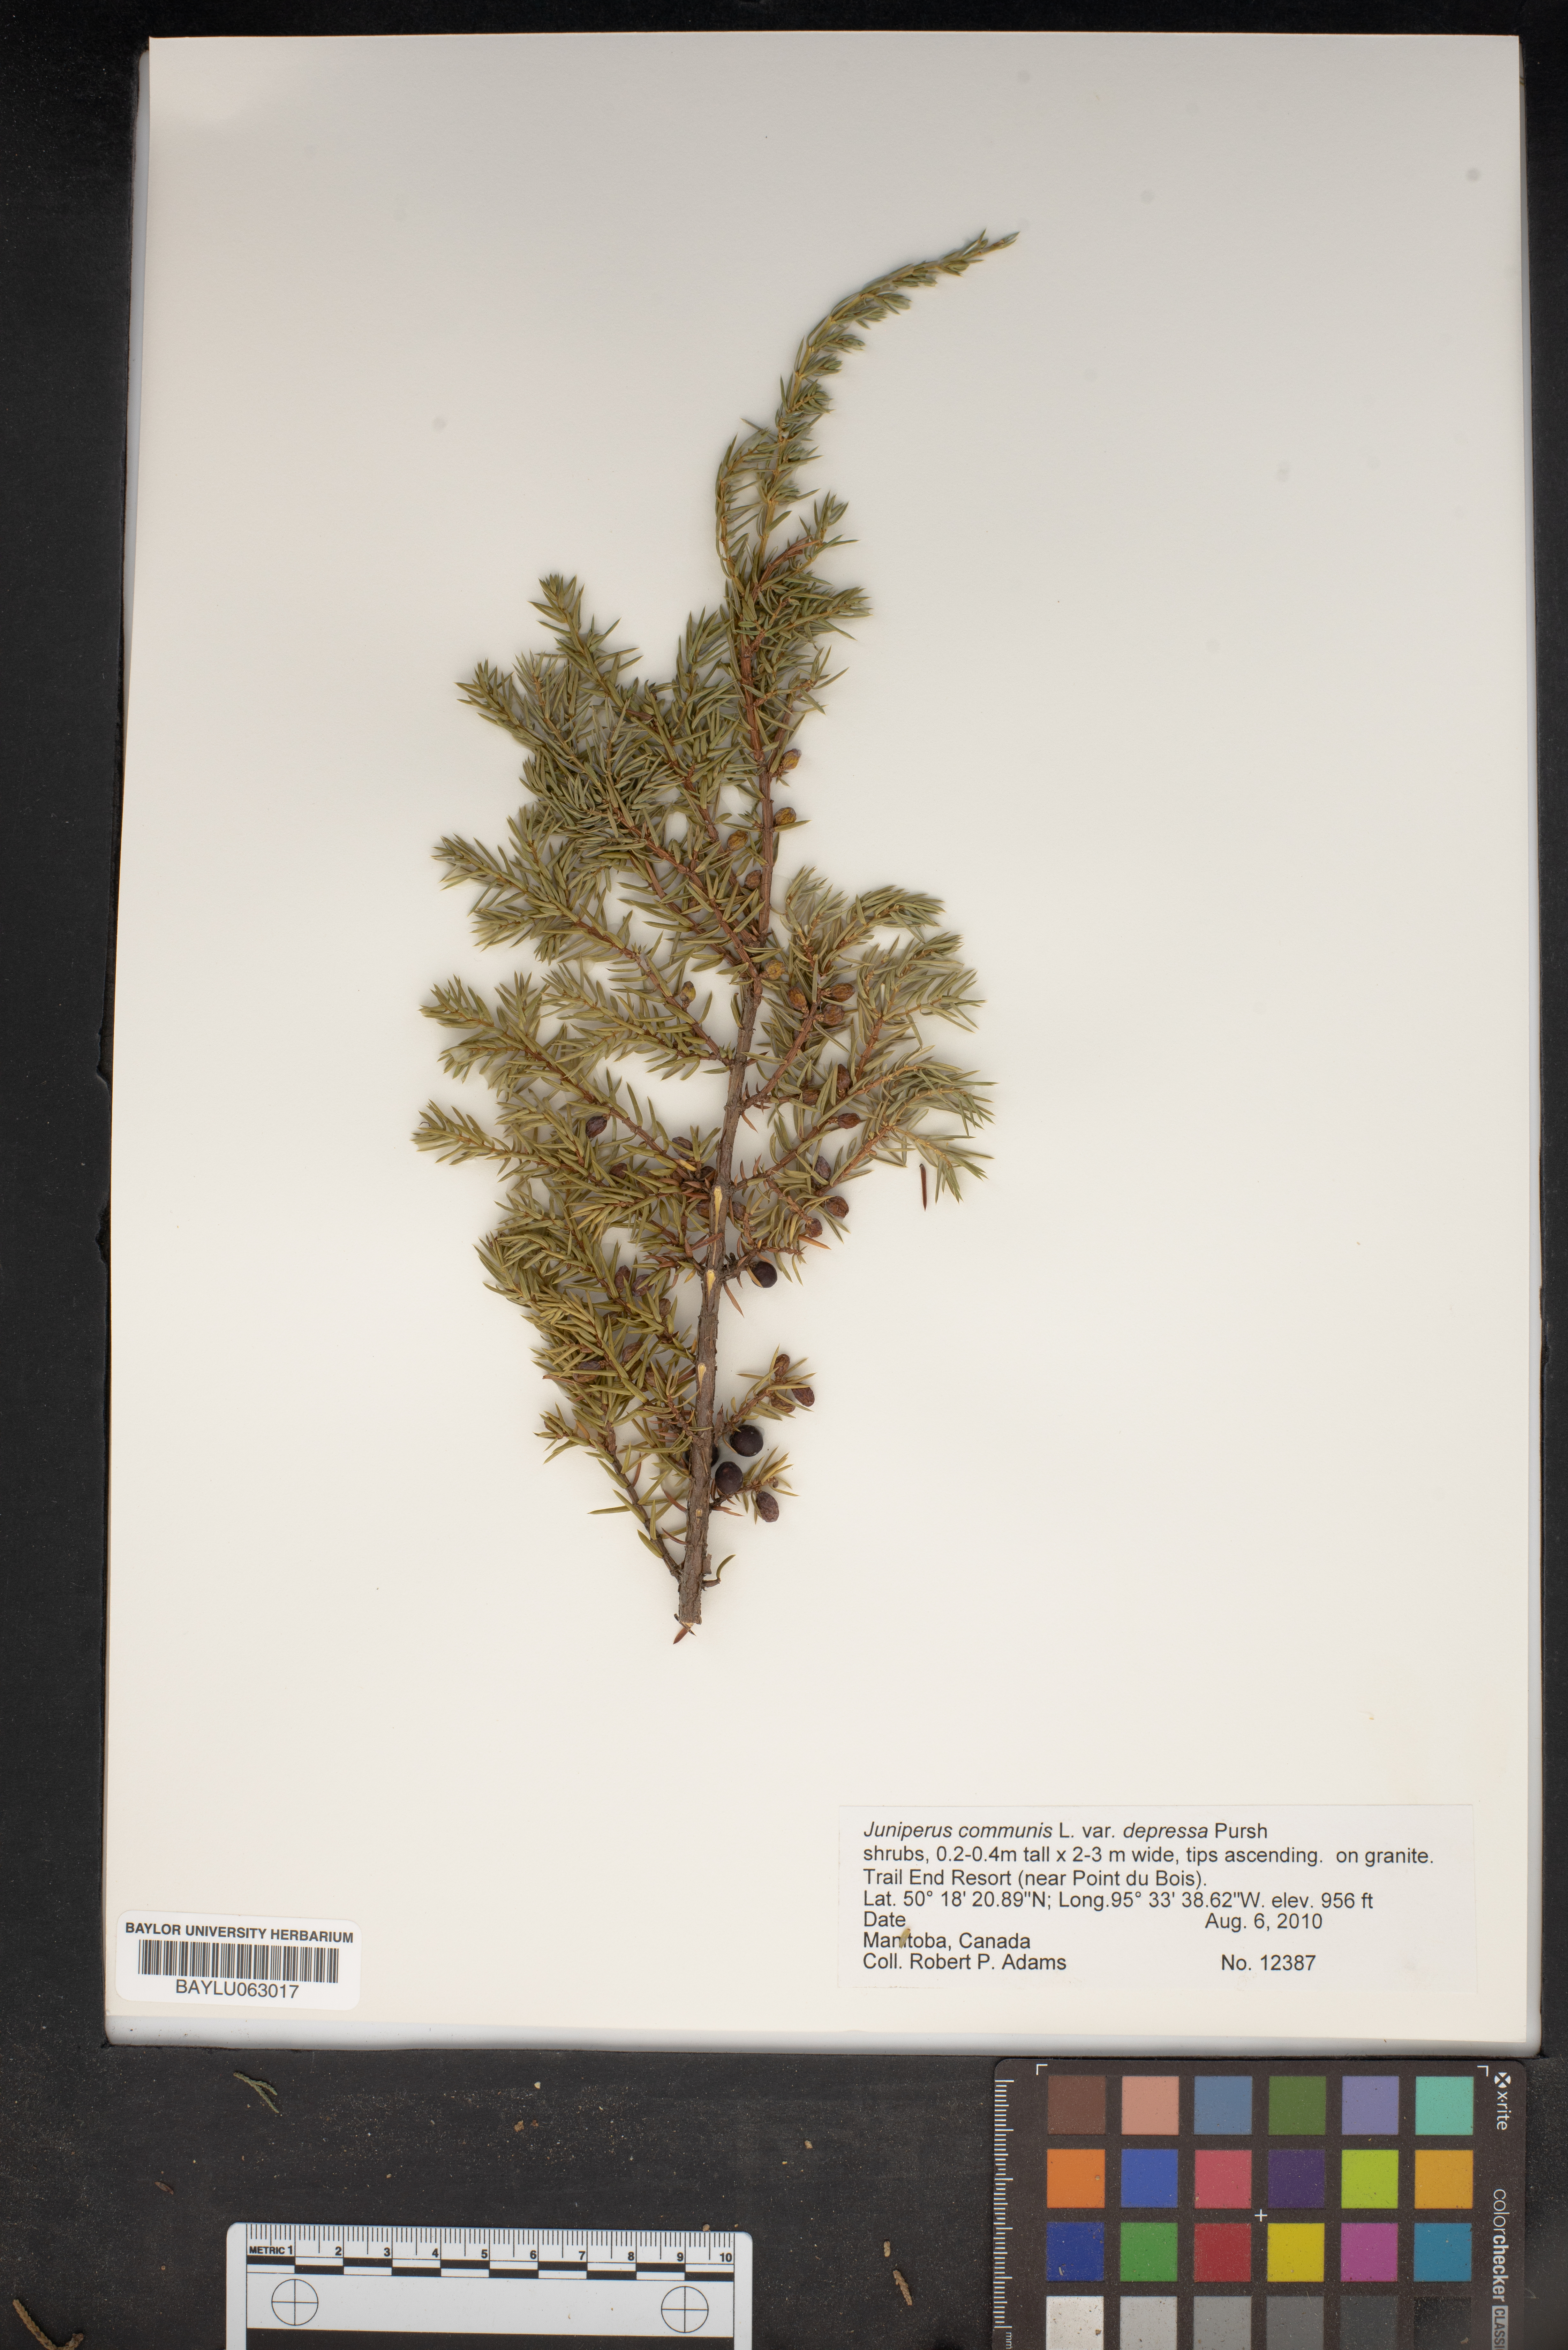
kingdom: Plantae
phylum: Tracheophyta
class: Pinopsida
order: Pinales
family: Cupressaceae
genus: Juniperus
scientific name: Juniperus communis
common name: Common juniper
